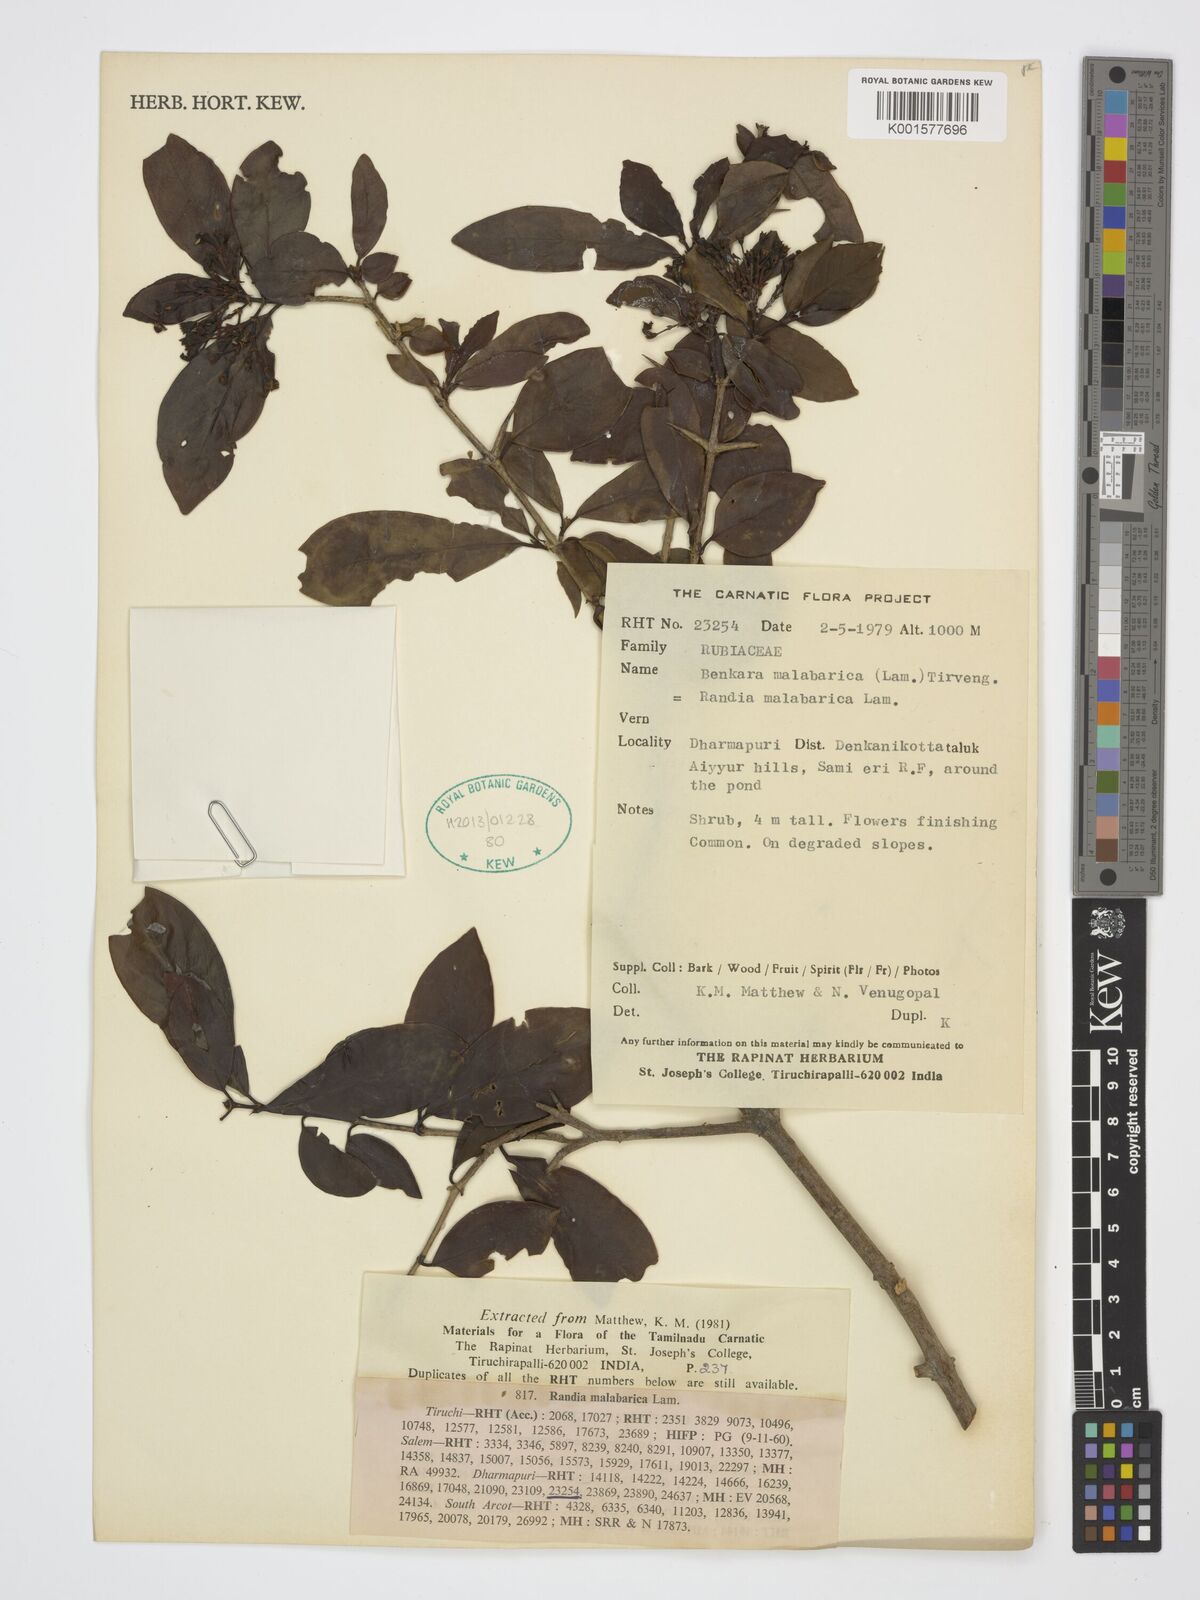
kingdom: Plantae
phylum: Tracheophyta
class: Magnoliopsida
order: Gentianales
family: Rubiaceae
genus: Benkara
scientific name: Benkara malabarica
